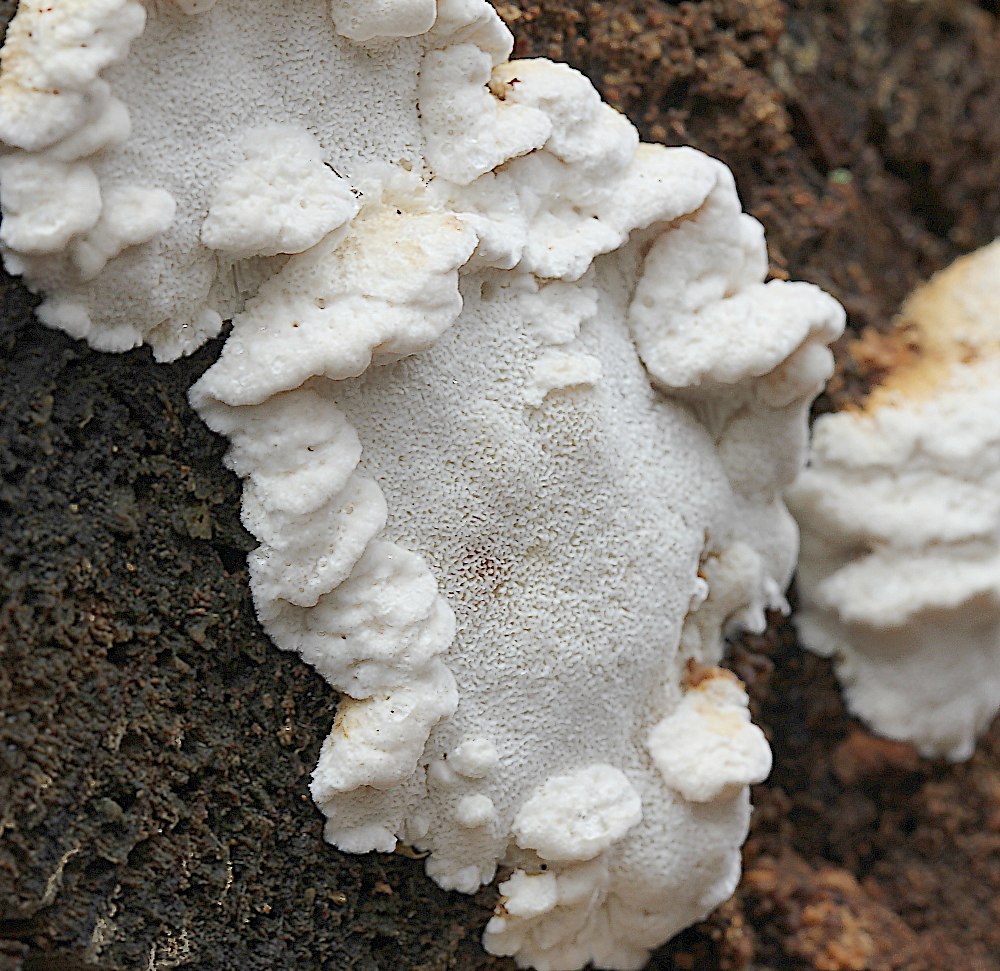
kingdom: Fungi
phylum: Basidiomycota
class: Agaricomycetes
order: Polyporales
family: Fomitopsidaceae
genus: Neoantrodia
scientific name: Neoantrodia serialis
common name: række-sejporesvamp
